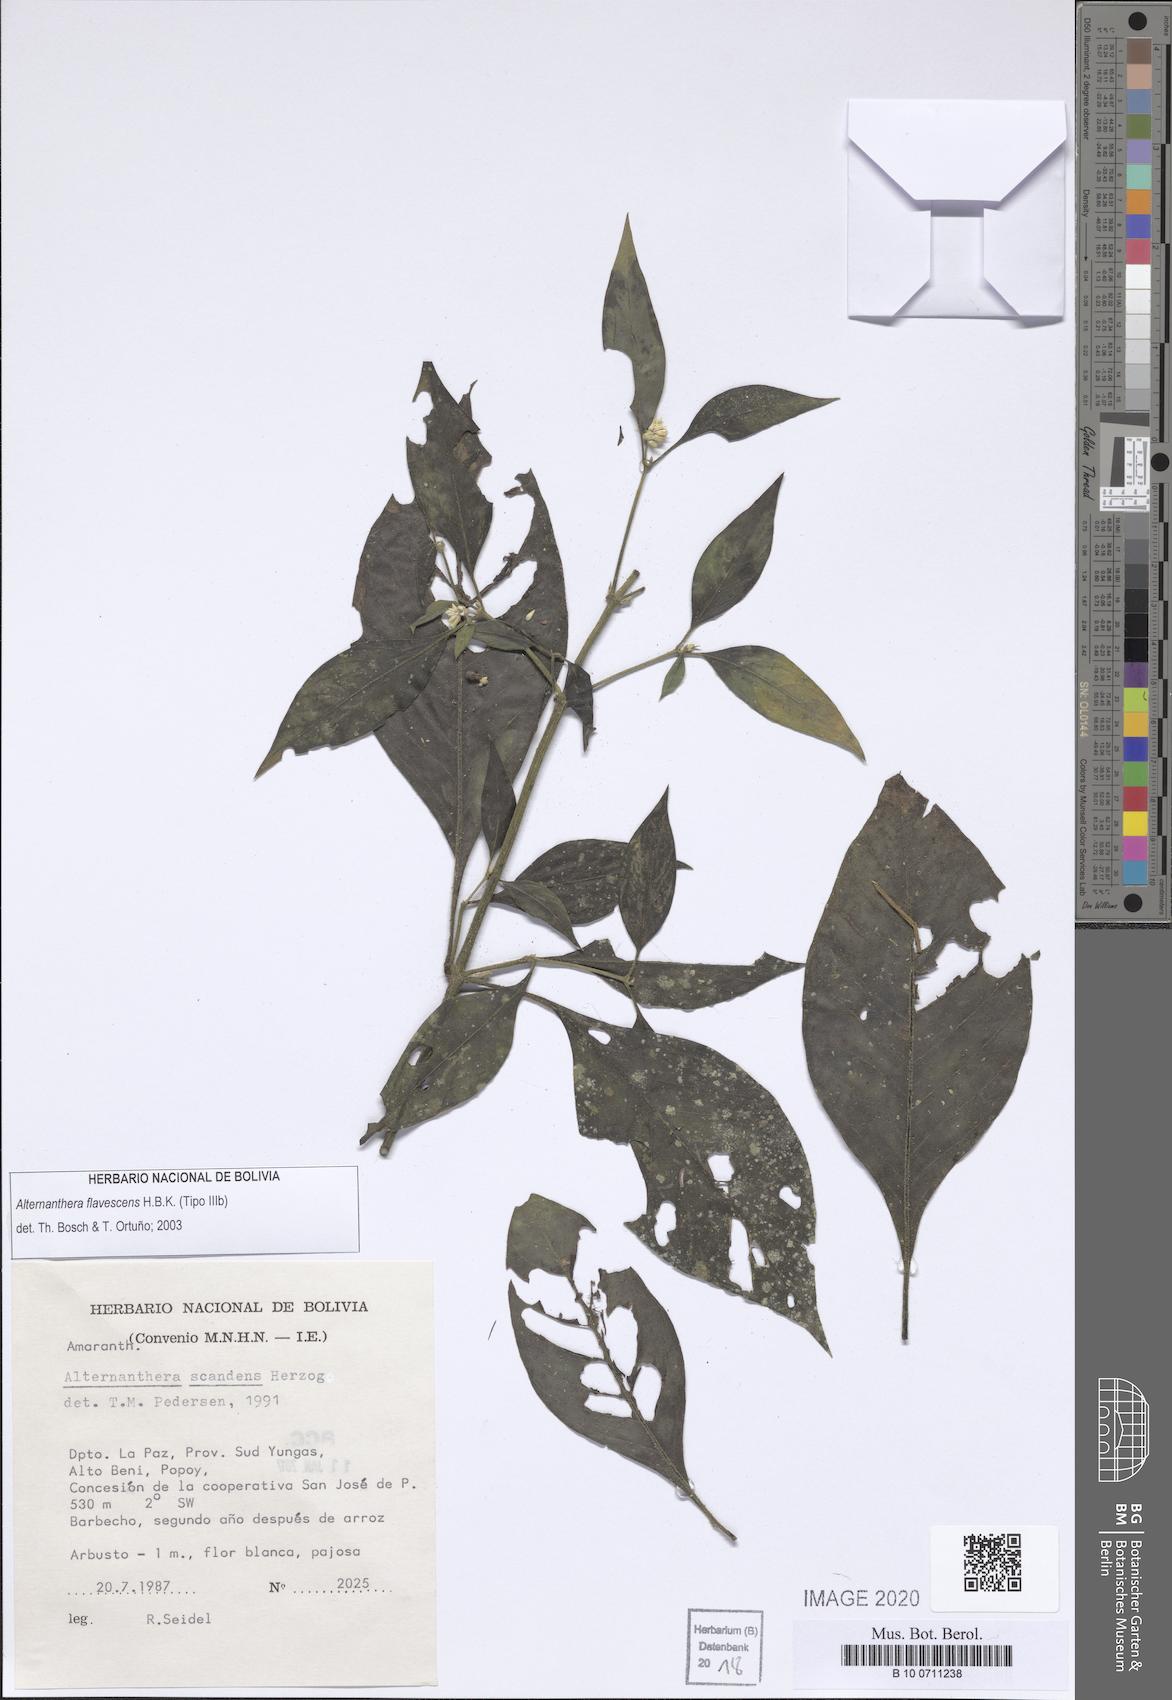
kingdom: Plantae
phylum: Tracheophyta
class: Magnoliopsida
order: Caryophyllales
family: Amaranthaceae
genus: Alternanthera
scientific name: Alternanthera flavescens
